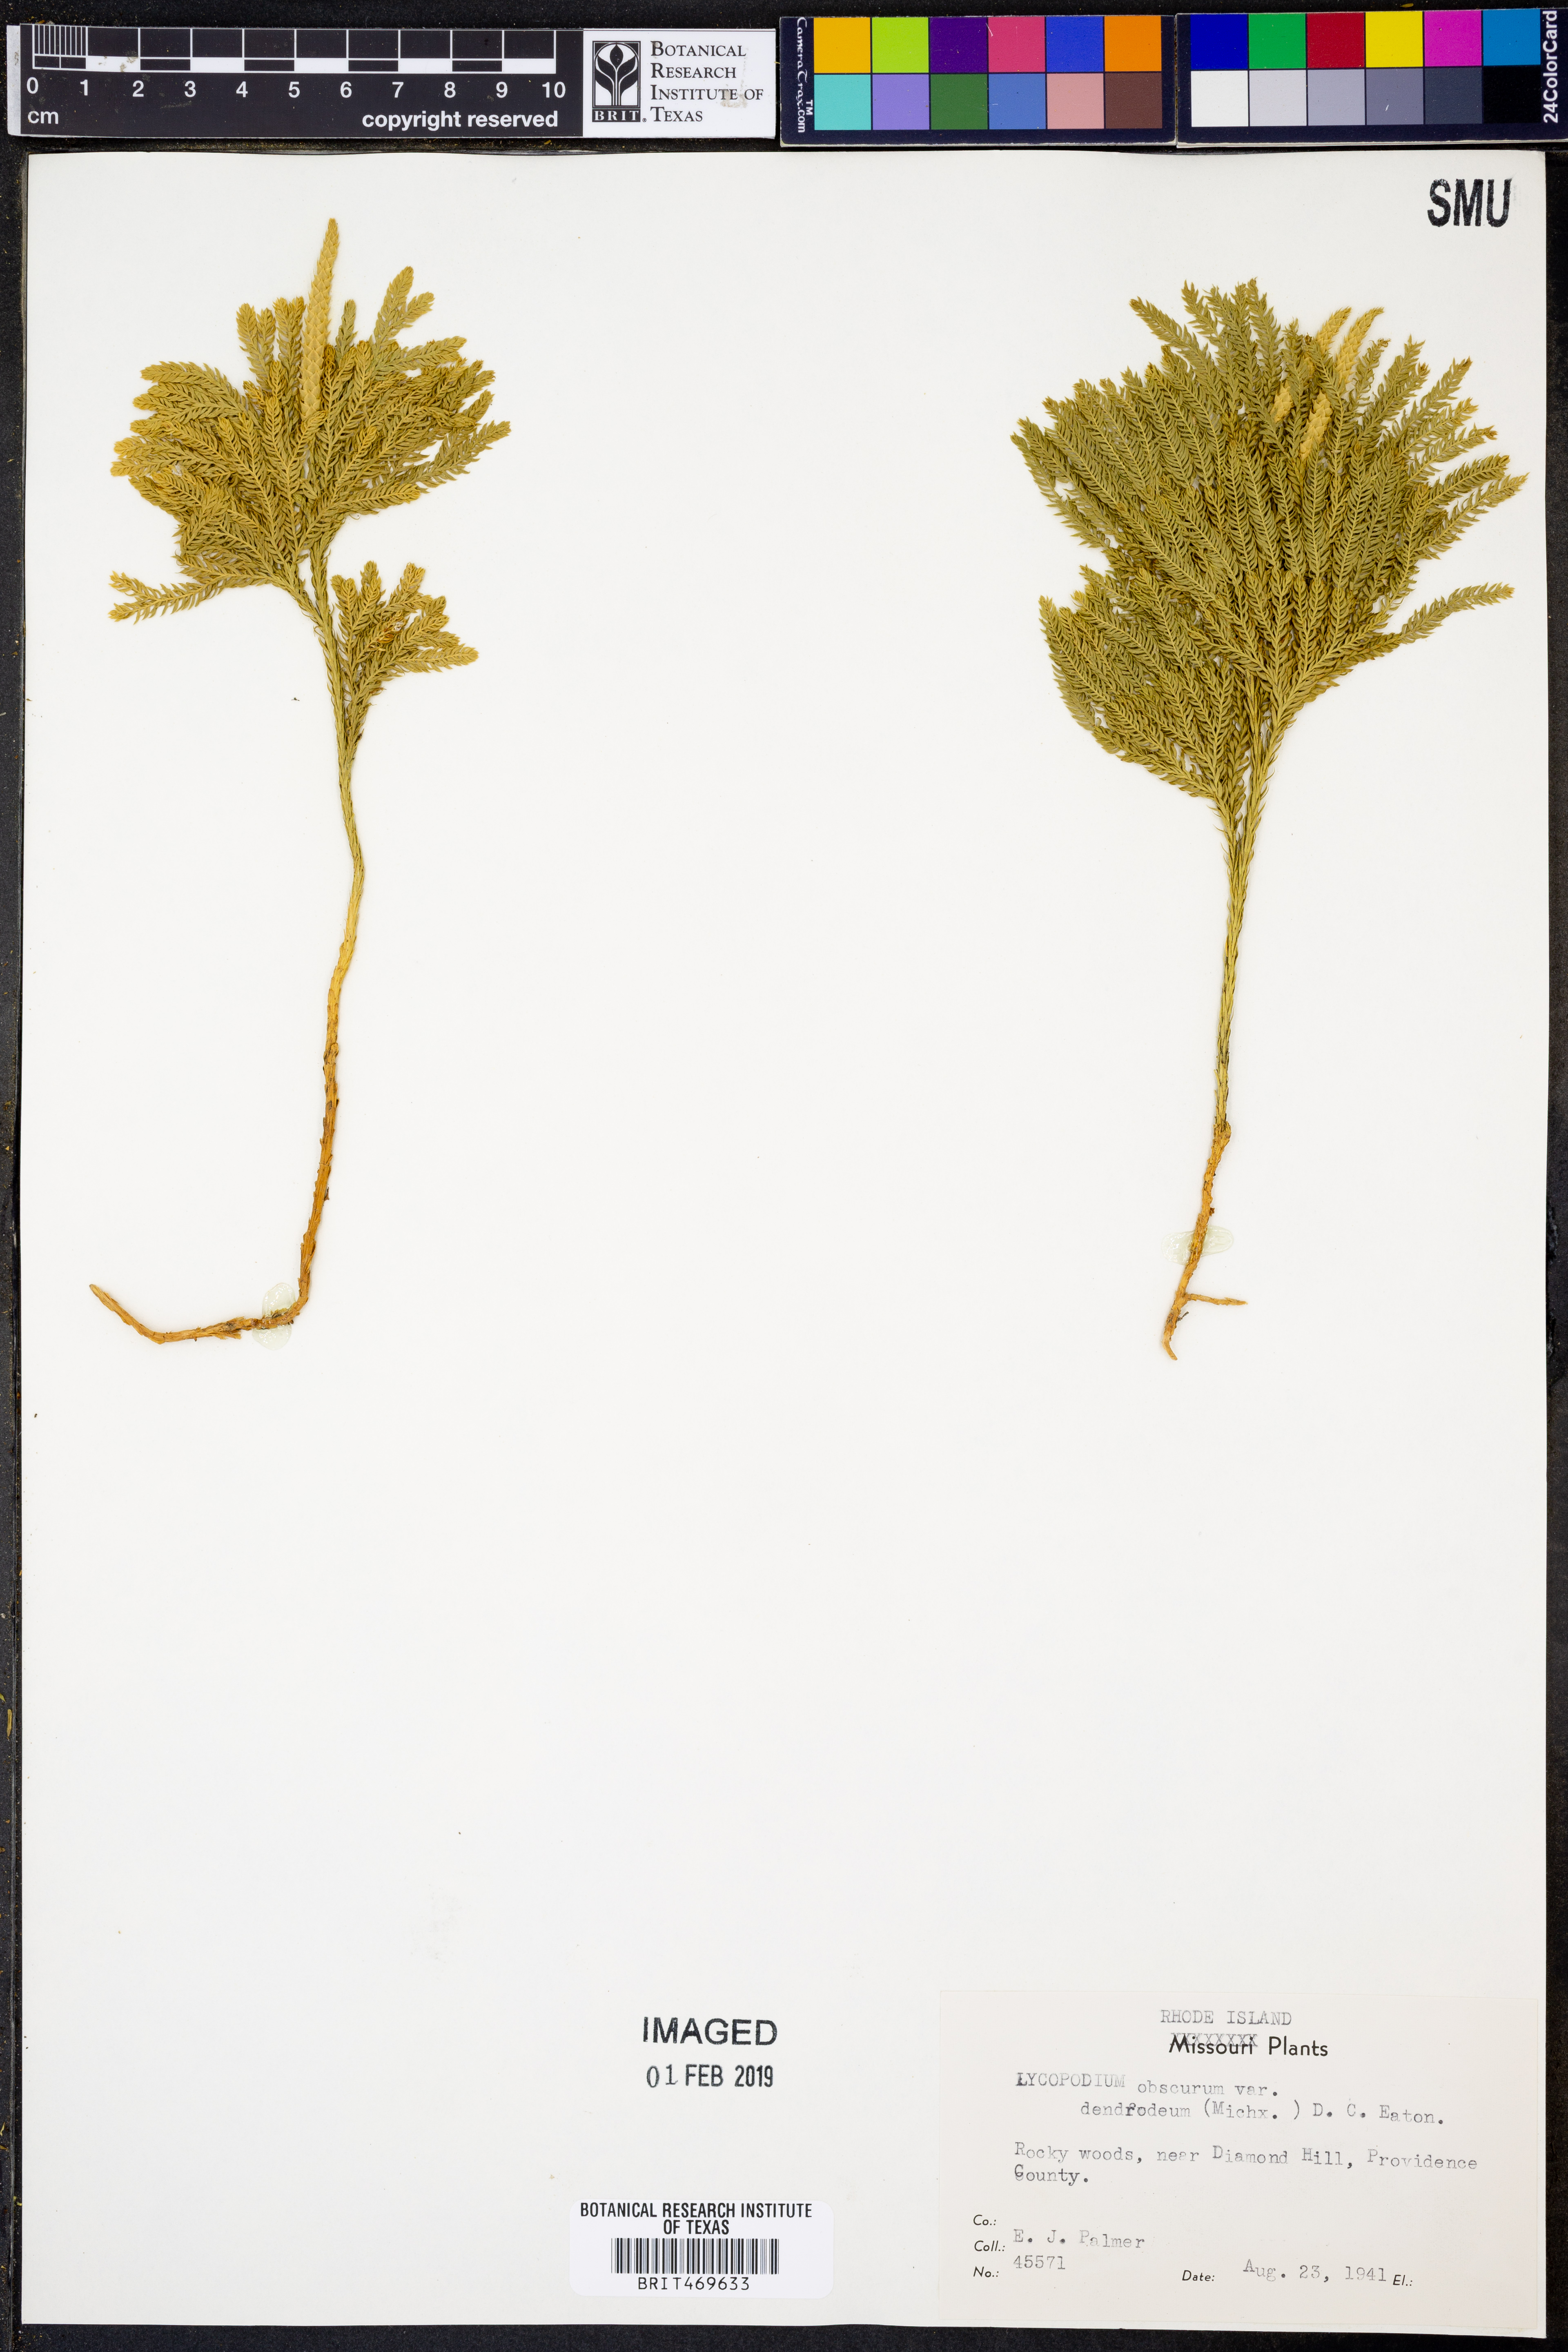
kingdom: Plantae
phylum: Tracheophyta
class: Lycopodiopsida
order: Lycopodiales
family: Lycopodiaceae
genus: Dendrolycopodium
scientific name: Dendrolycopodium dendroideum
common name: Northern tree-clubmoss
